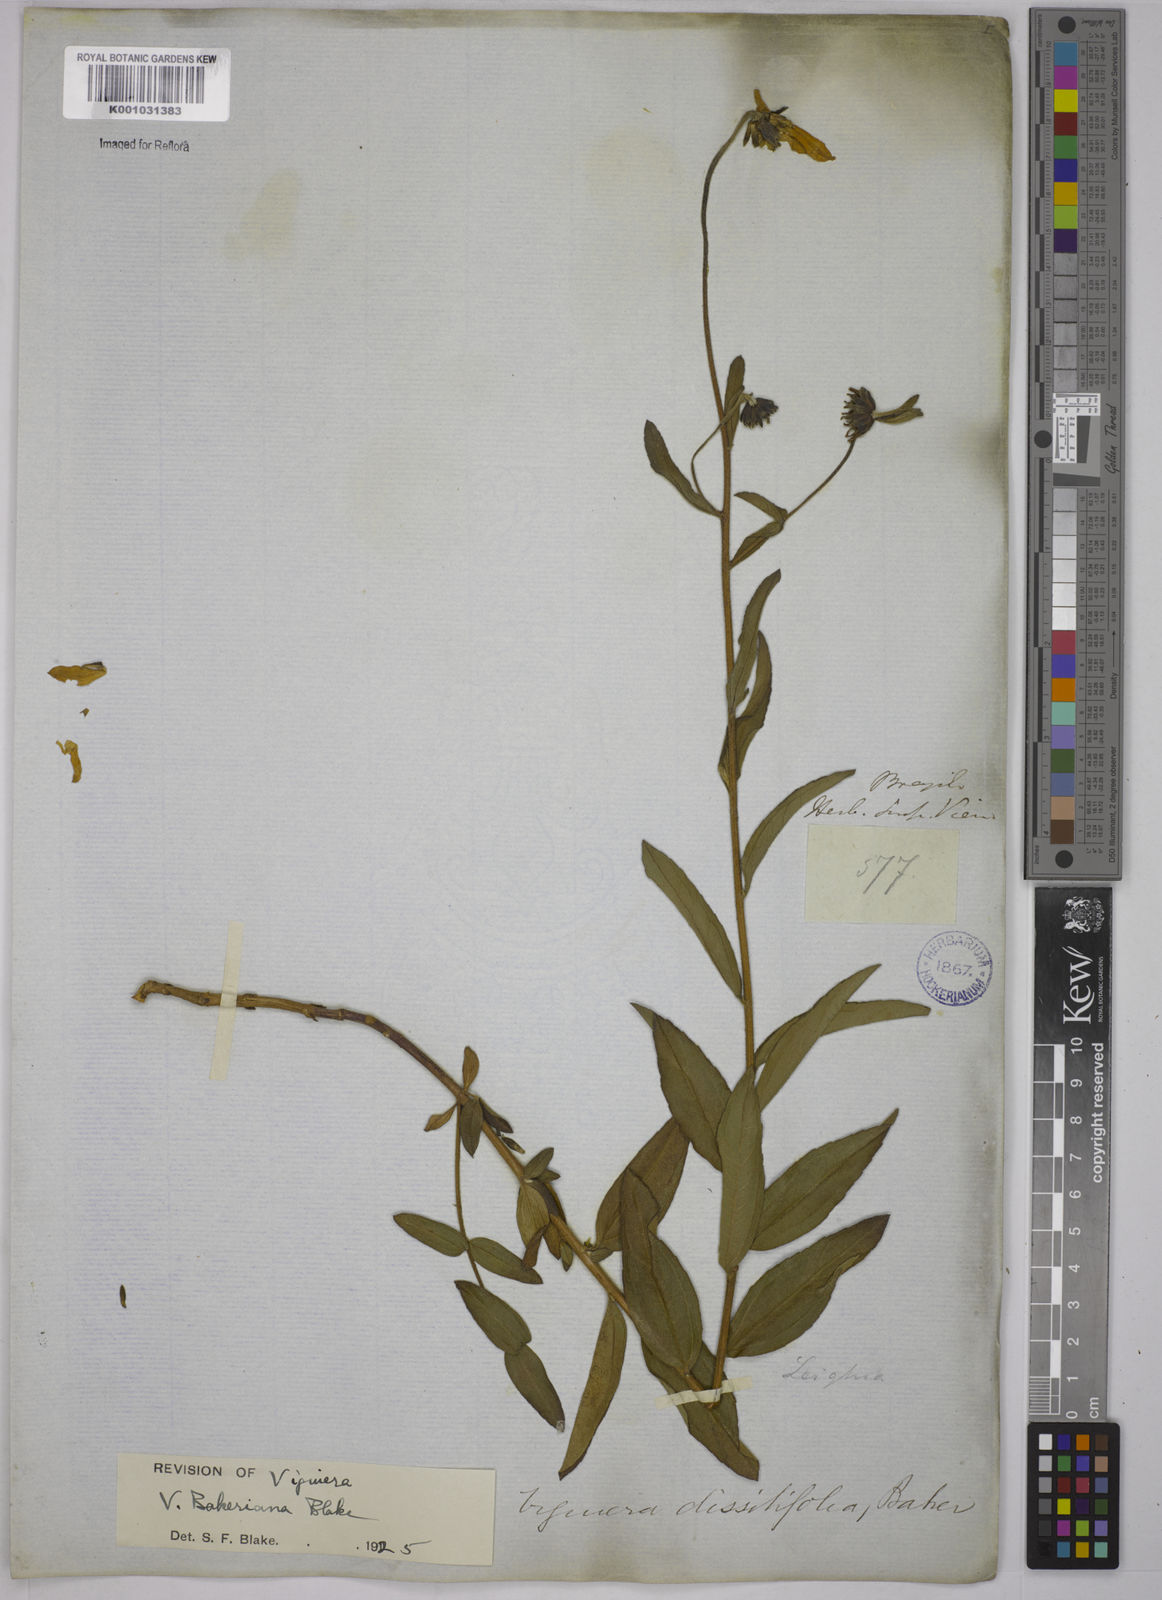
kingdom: Plantae
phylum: Tracheophyta
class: Magnoliopsida
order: Asterales
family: Asteraceae
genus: Aldama
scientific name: Aldama bakeriana
